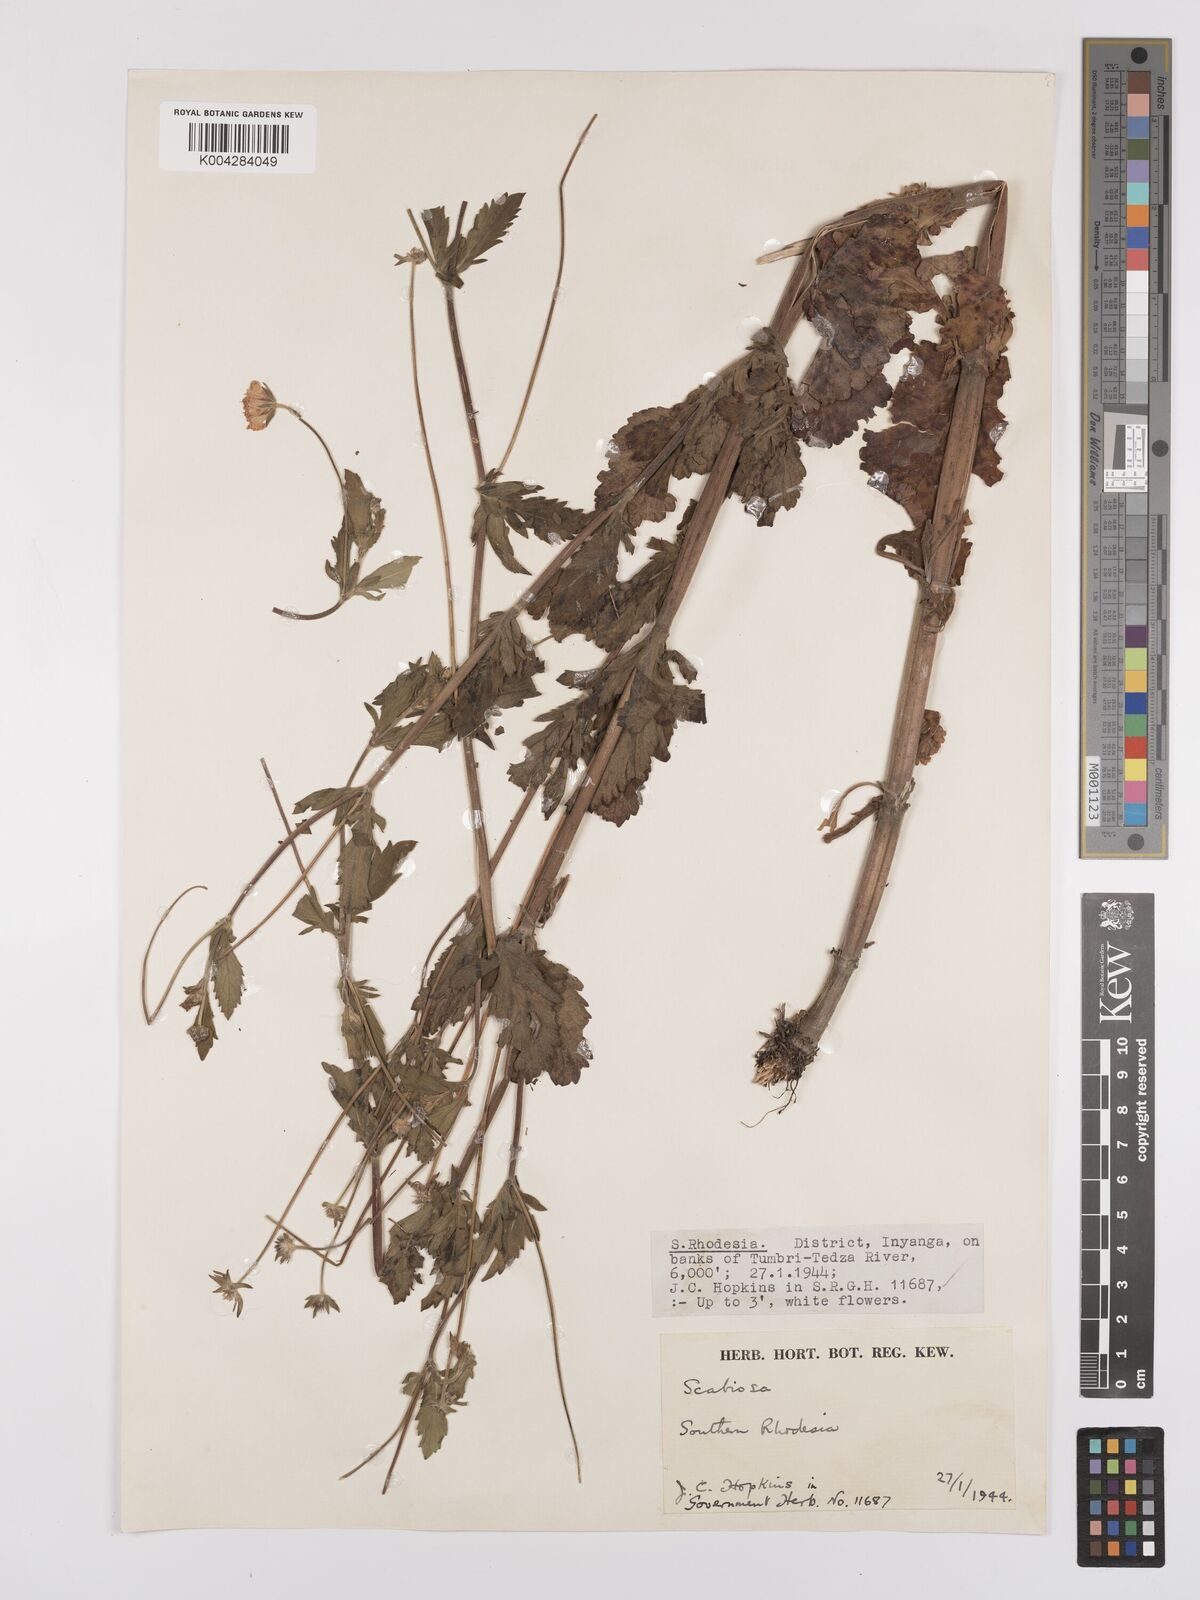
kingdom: Plantae
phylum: Tracheophyta
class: Magnoliopsida
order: Dipsacales
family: Caprifoliaceae
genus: Scabiosa
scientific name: Scabiosa drakensbergensis
